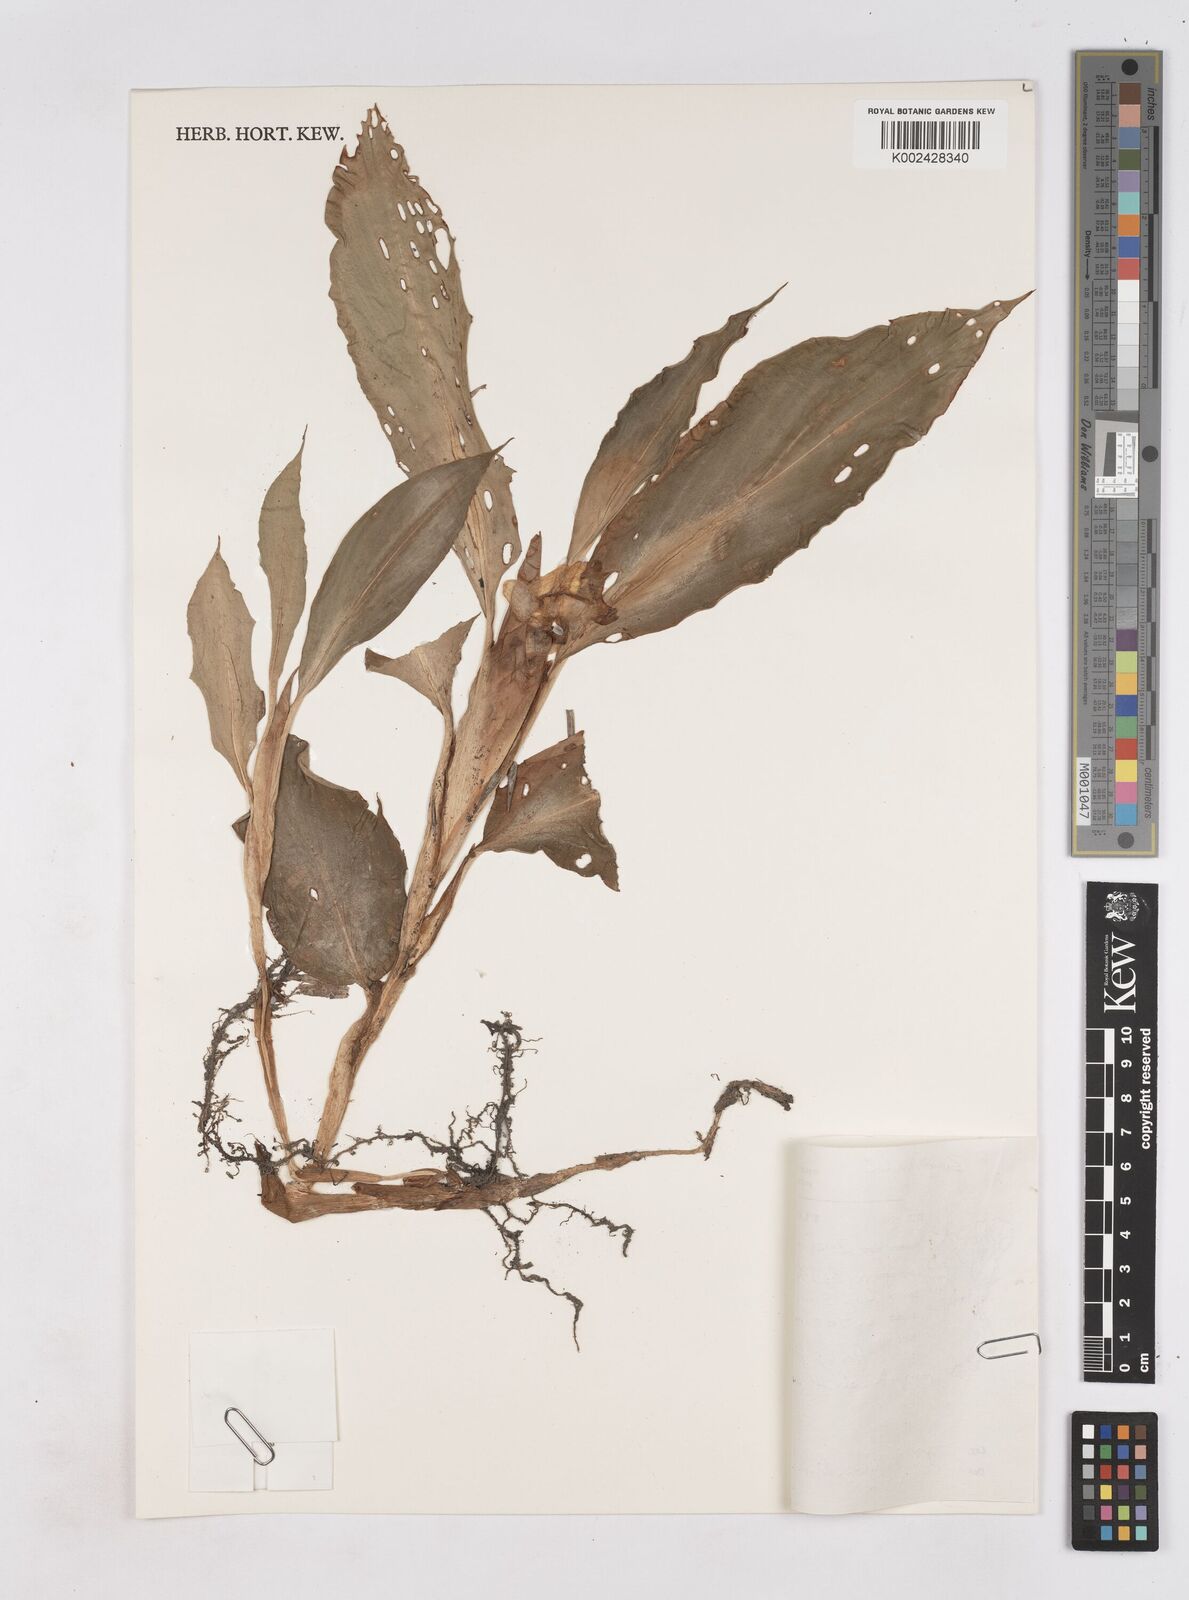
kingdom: Plantae
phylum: Tracheophyta
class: Liliopsida
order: Zingiberales
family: Zingiberaceae
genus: Boesenbergia
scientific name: Boesenbergia pulcherrima
